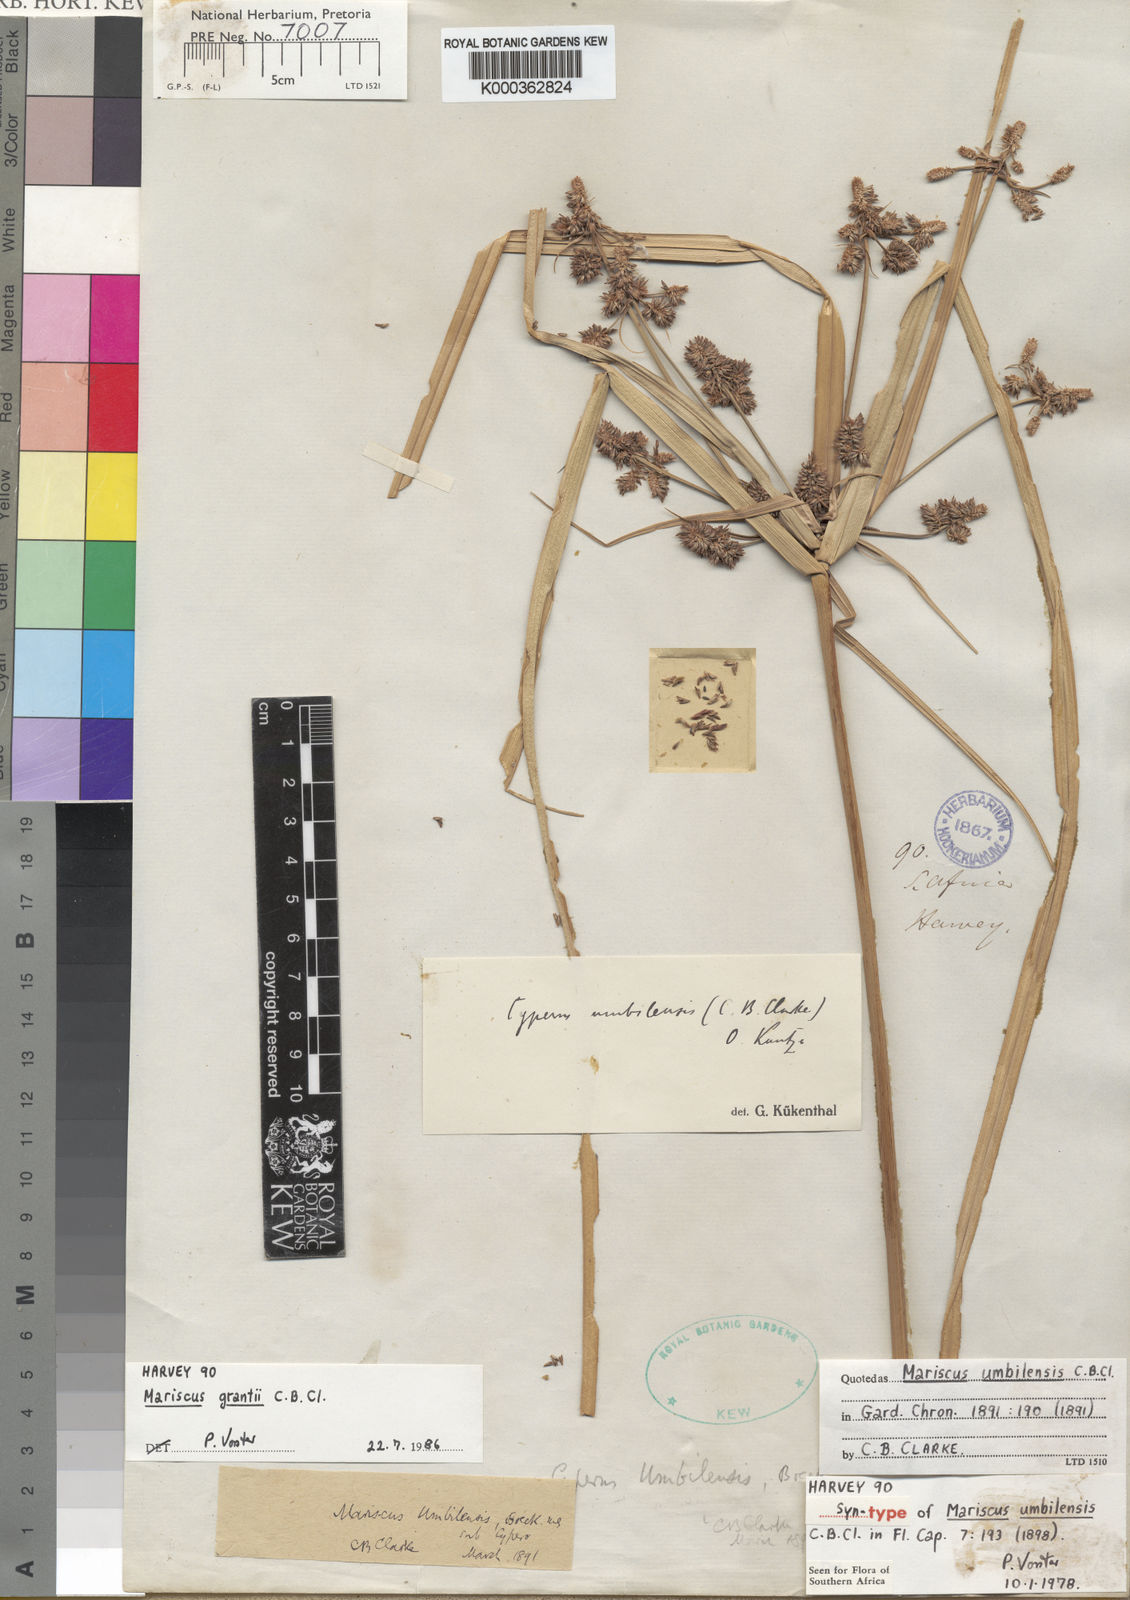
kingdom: Plantae
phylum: Tracheophyta
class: Liliopsida
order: Poales
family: Cyperaceae
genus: Cyperus
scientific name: Cyperus owanii
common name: Owan's flatsedge
